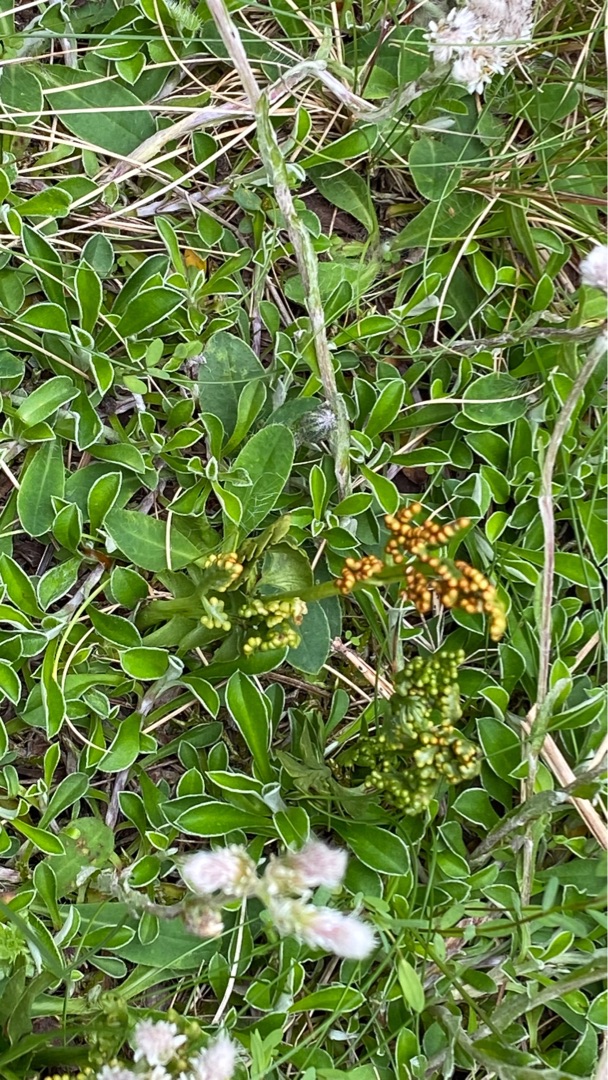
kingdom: Plantae
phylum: Tracheophyta
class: Polypodiopsida
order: Ophioglossales
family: Ophioglossaceae
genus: Botrychium
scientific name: Botrychium lunaria
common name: Almindelig månerude
